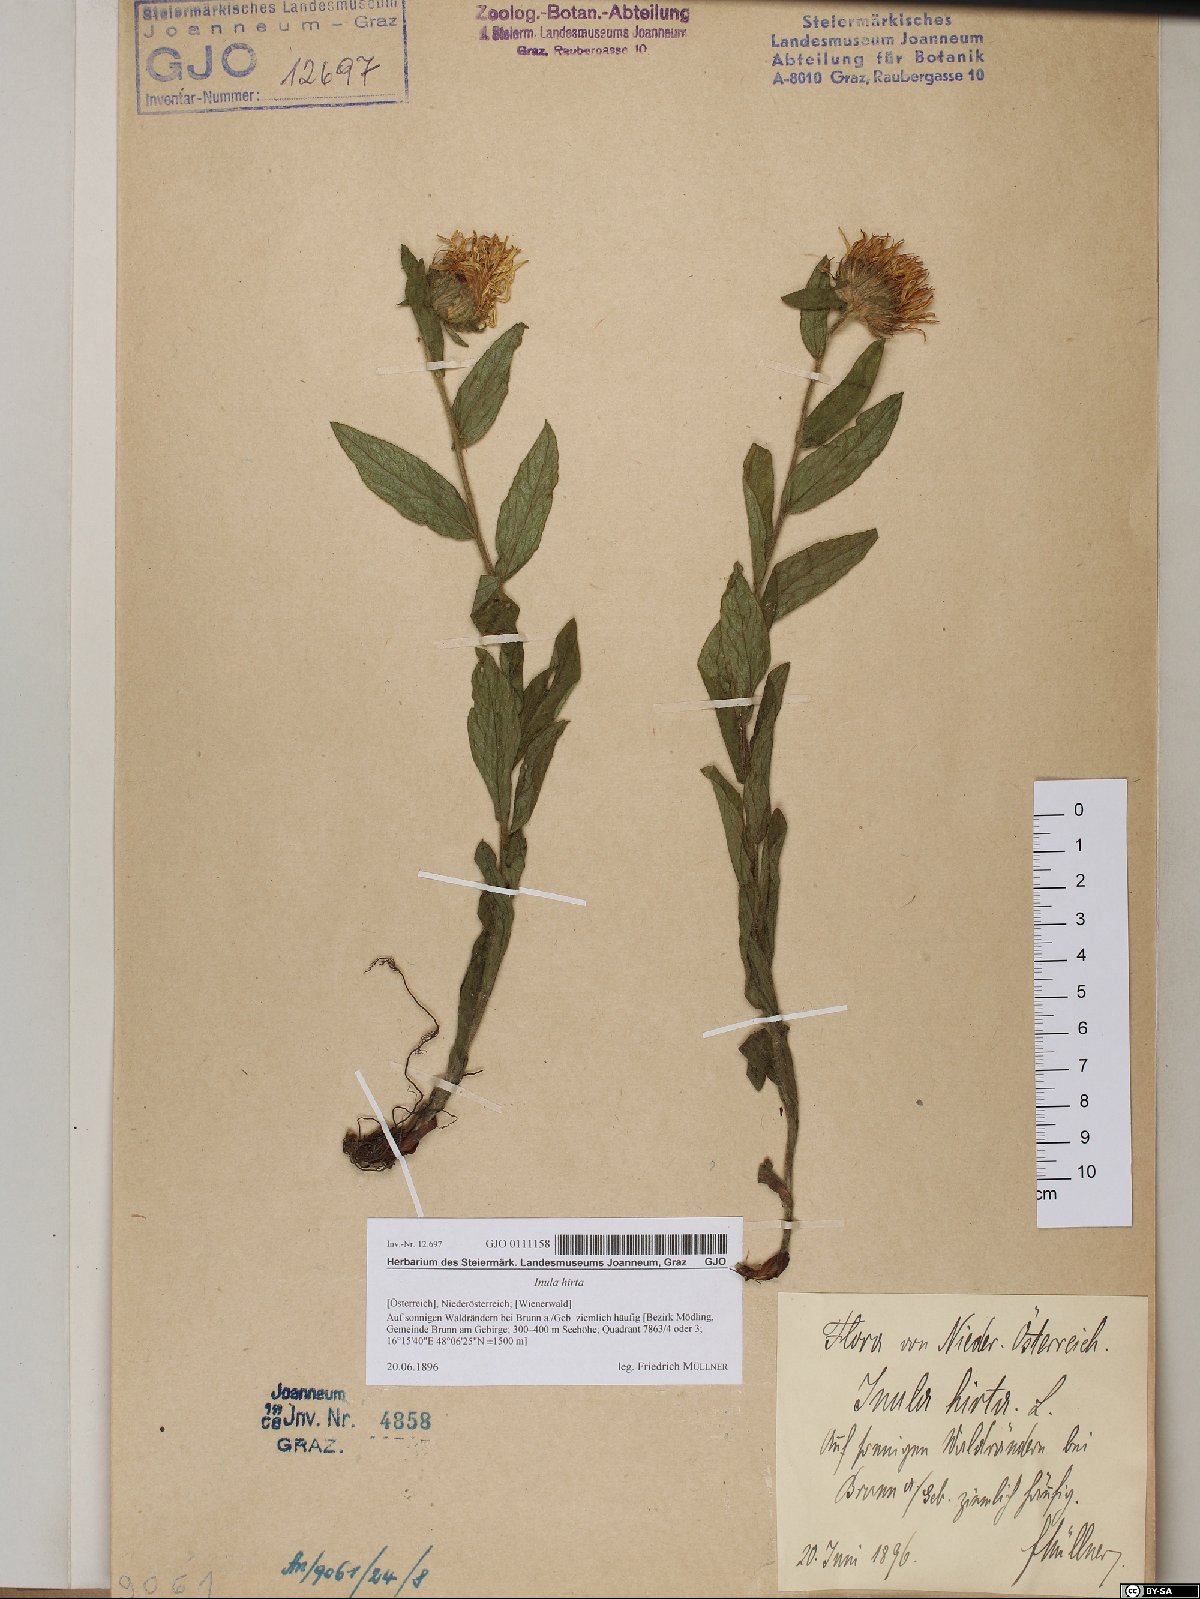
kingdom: Plantae
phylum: Tracheophyta
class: Magnoliopsida
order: Asterales
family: Asteraceae
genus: Pentanema
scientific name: Pentanema hirtum
